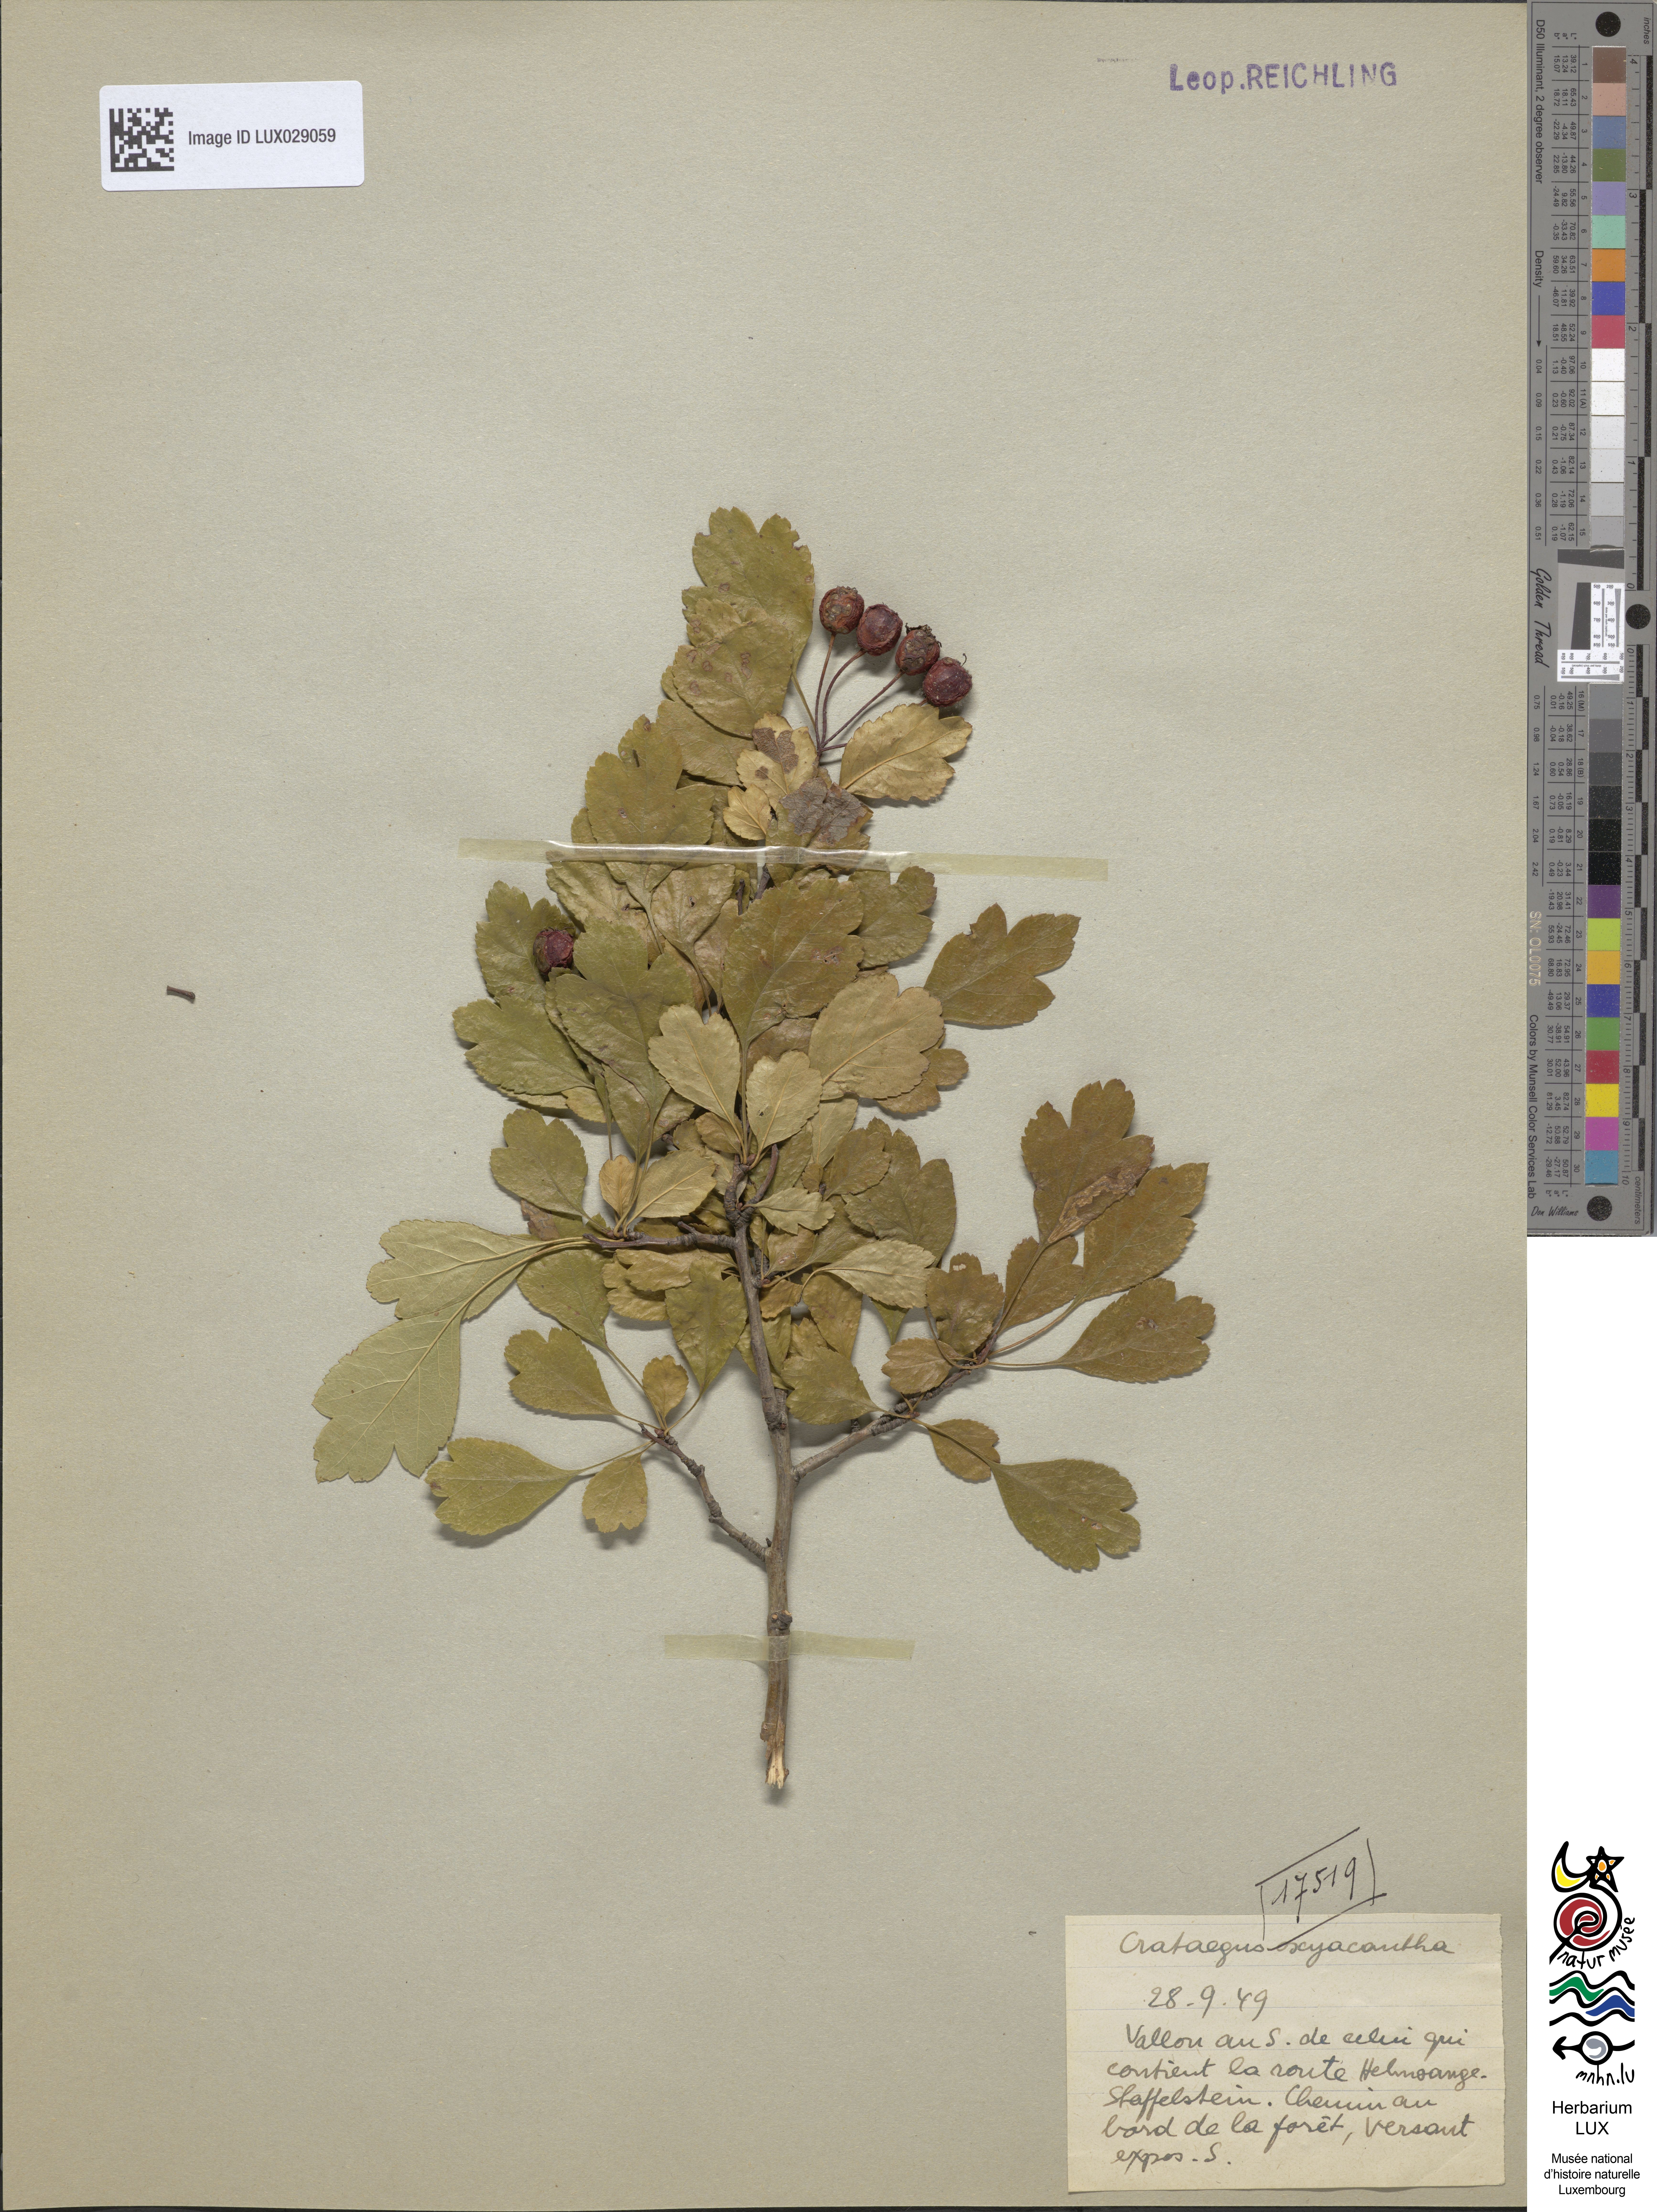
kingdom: Plantae
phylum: Tracheophyta
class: Magnoliopsida
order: Rosales
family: Rosaceae
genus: Crataegus
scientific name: Crataegus monogyna
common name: Hawthorn
